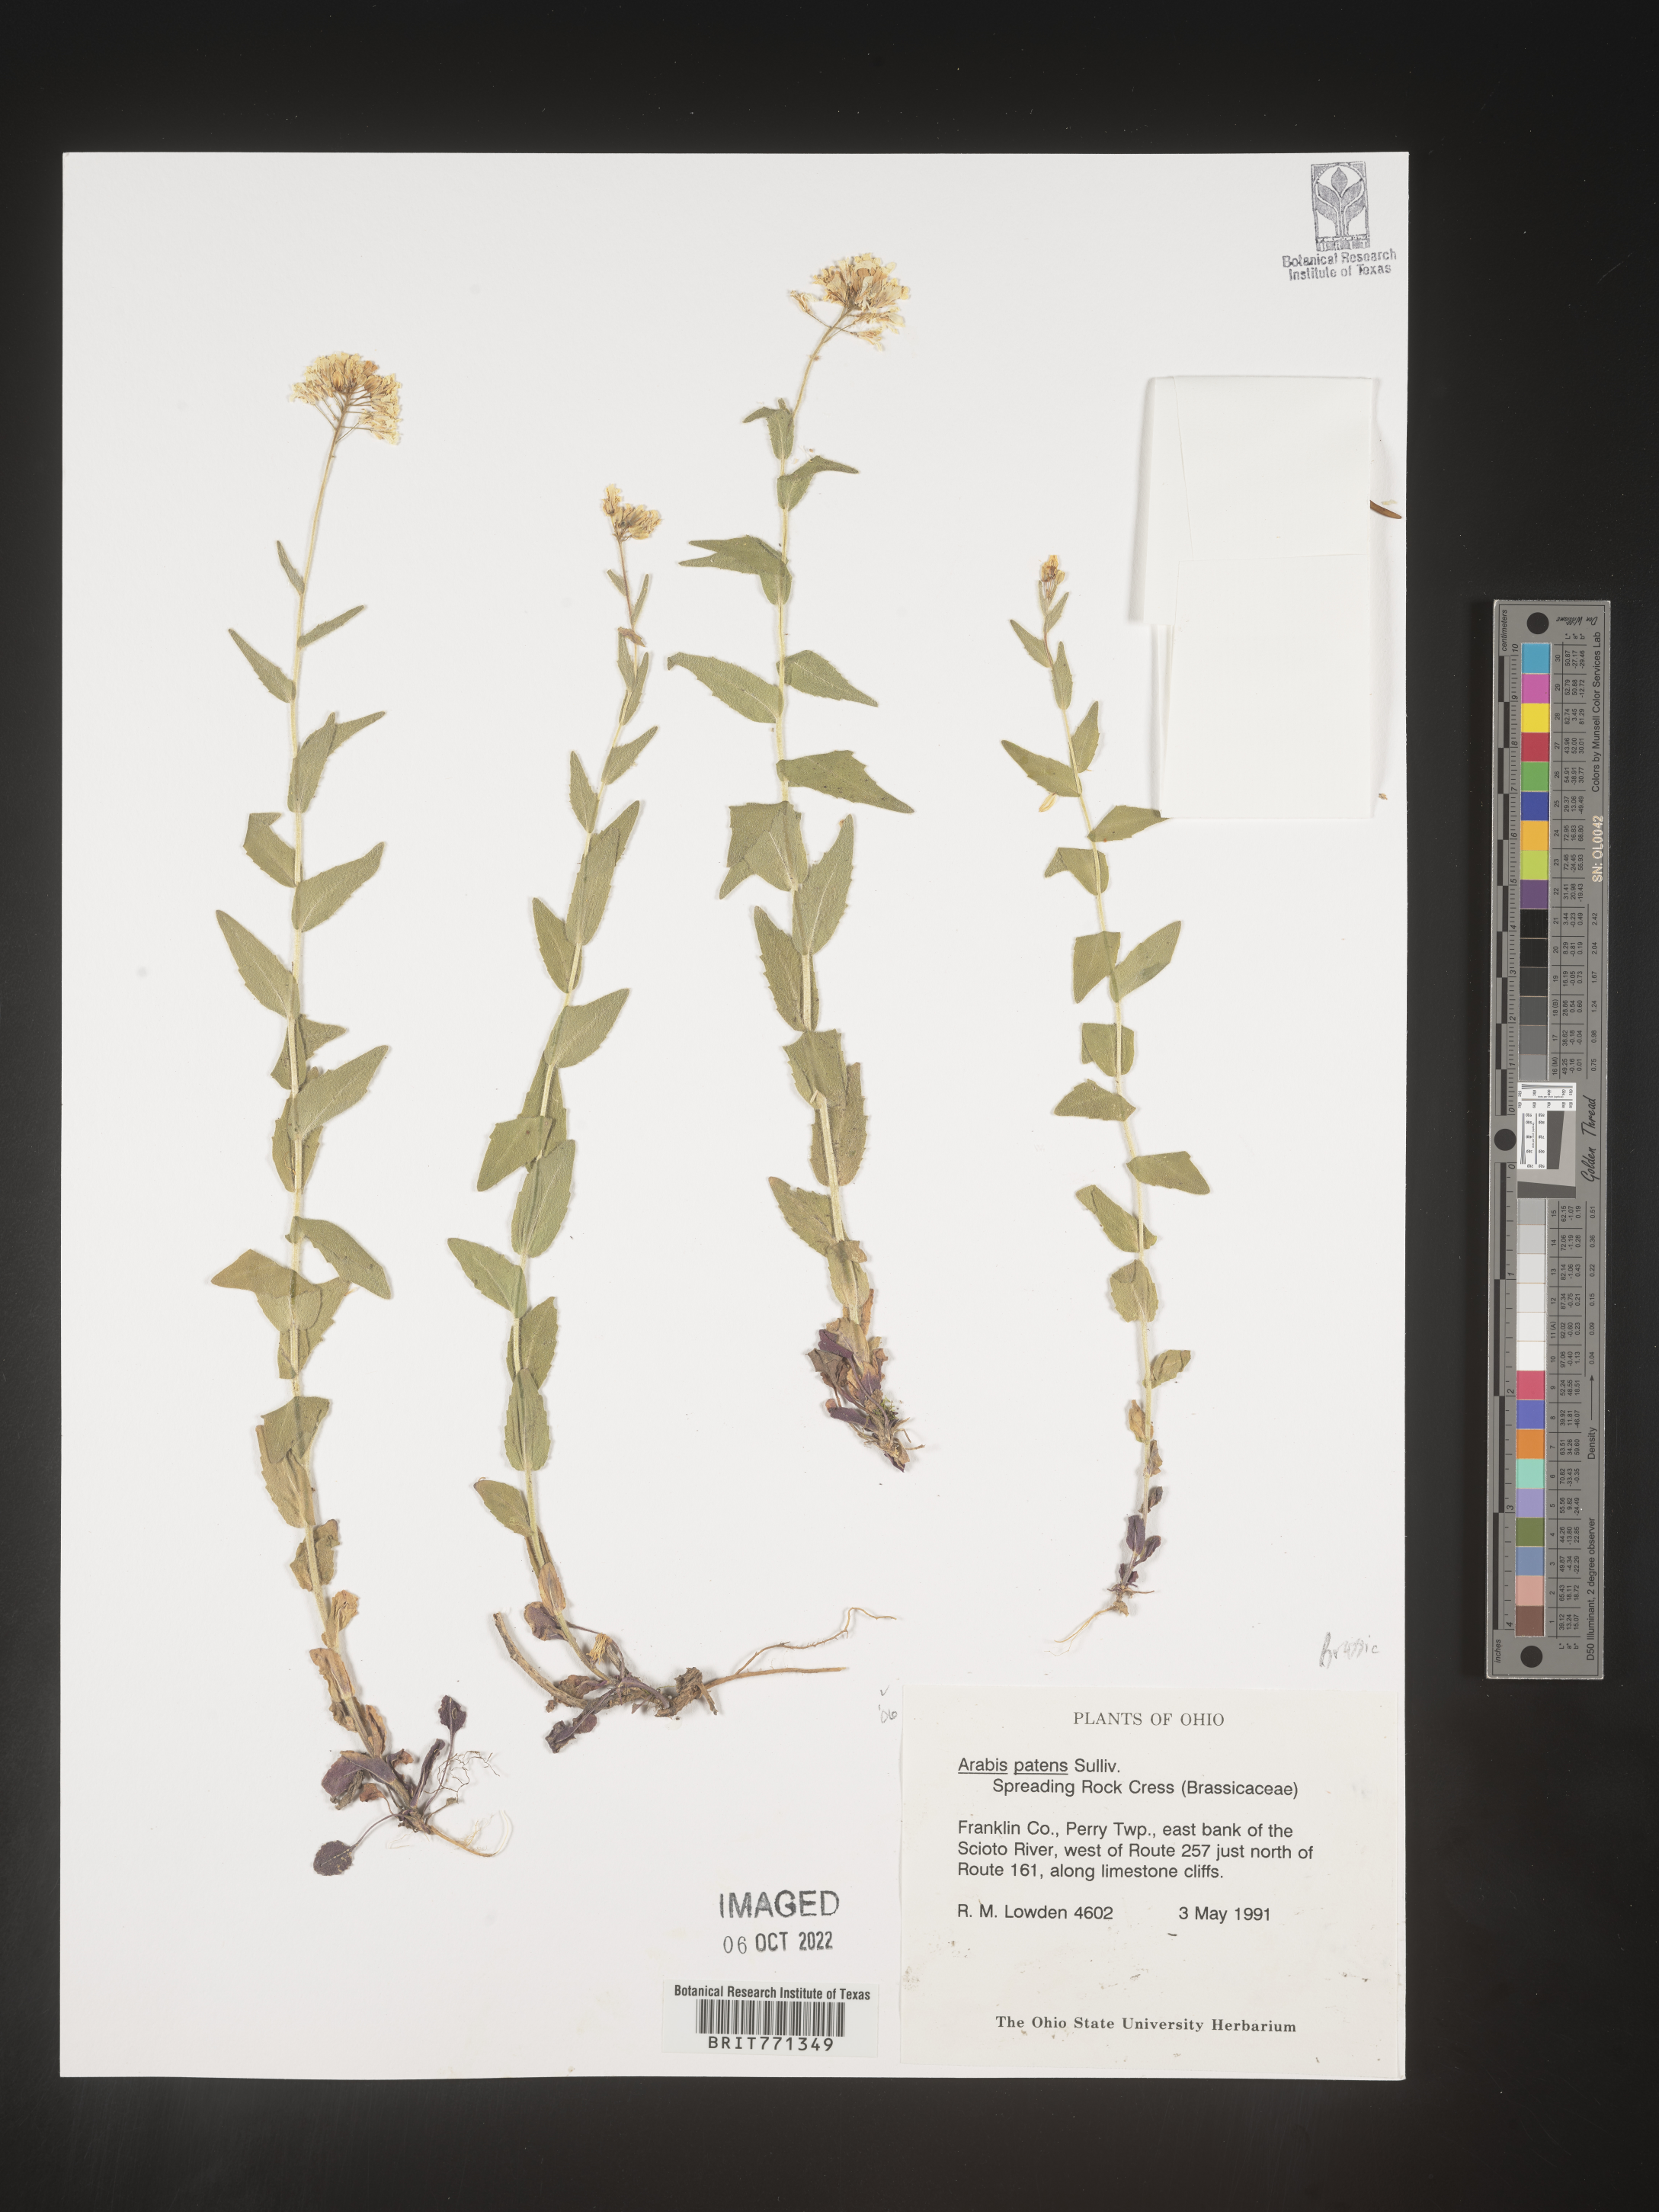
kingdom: Plantae
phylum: Tracheophyta
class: Magnoliopsida
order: Brassicales
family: Brassicaceae
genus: Arabis
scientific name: Arabis
